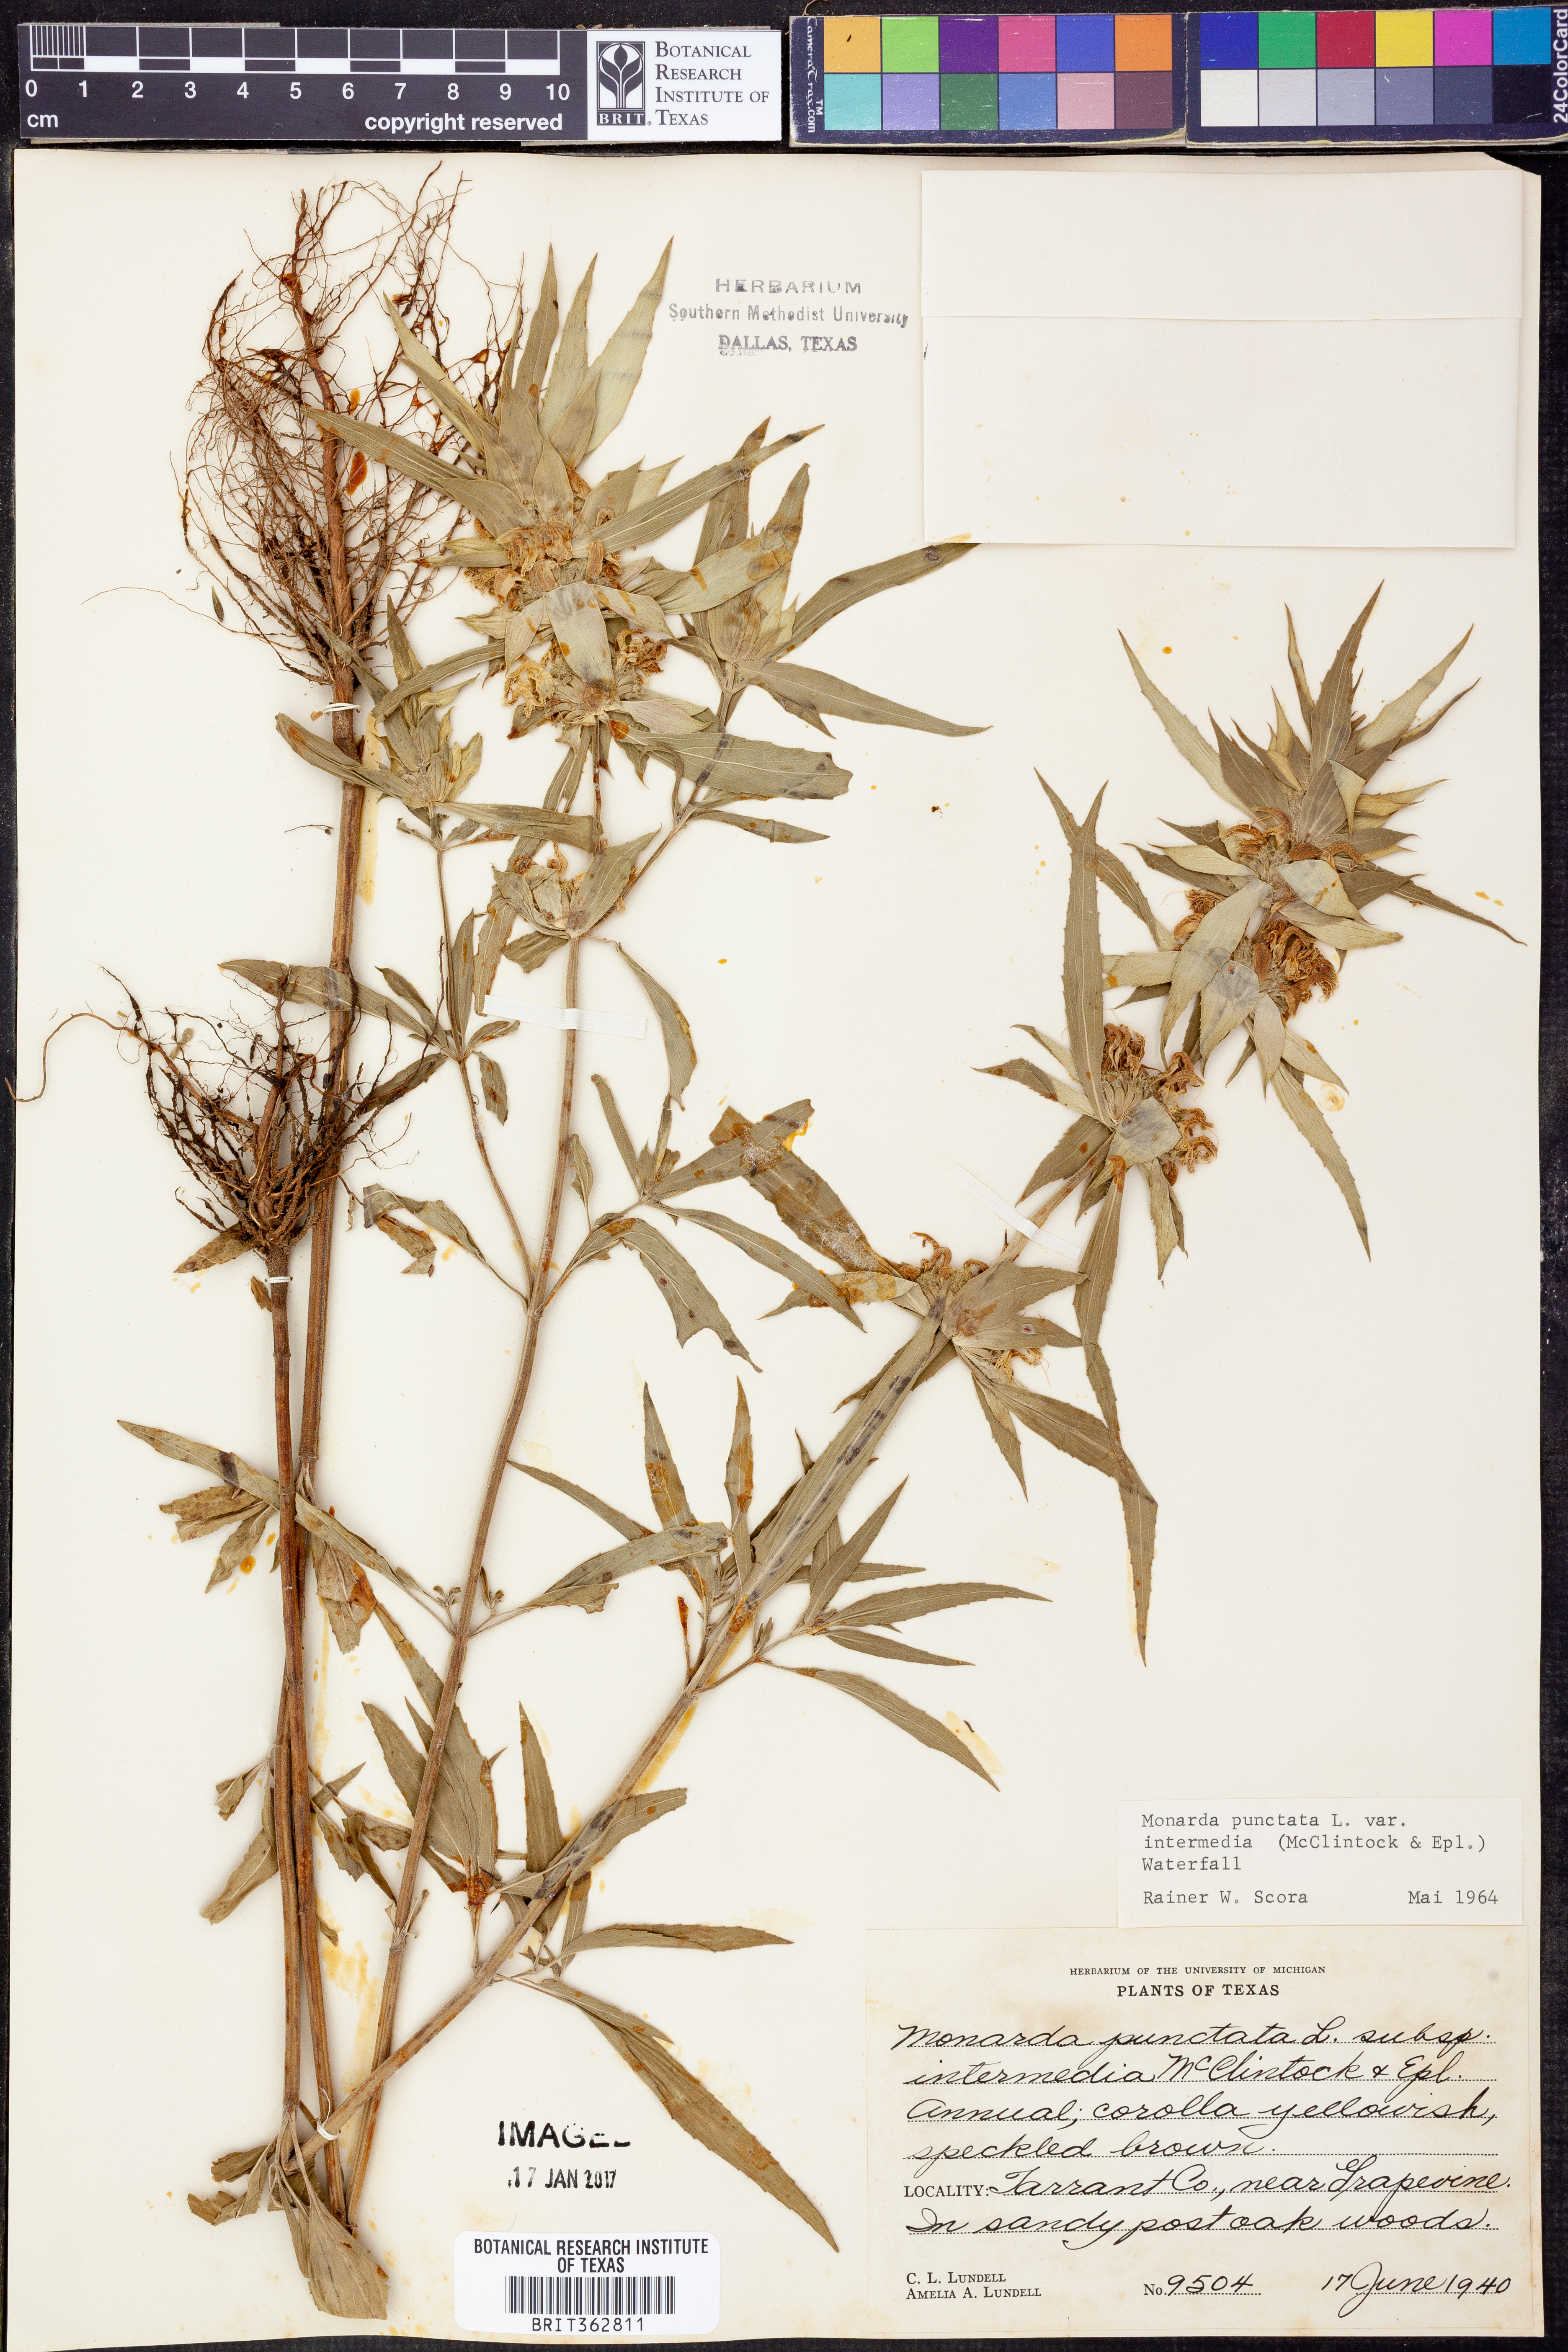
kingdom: Plantae
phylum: Tracheophyta
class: Magnoliopsida
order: Lamiales
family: Lamiaceae
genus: Monarda
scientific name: Monarda punctata
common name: Dotted monarda
